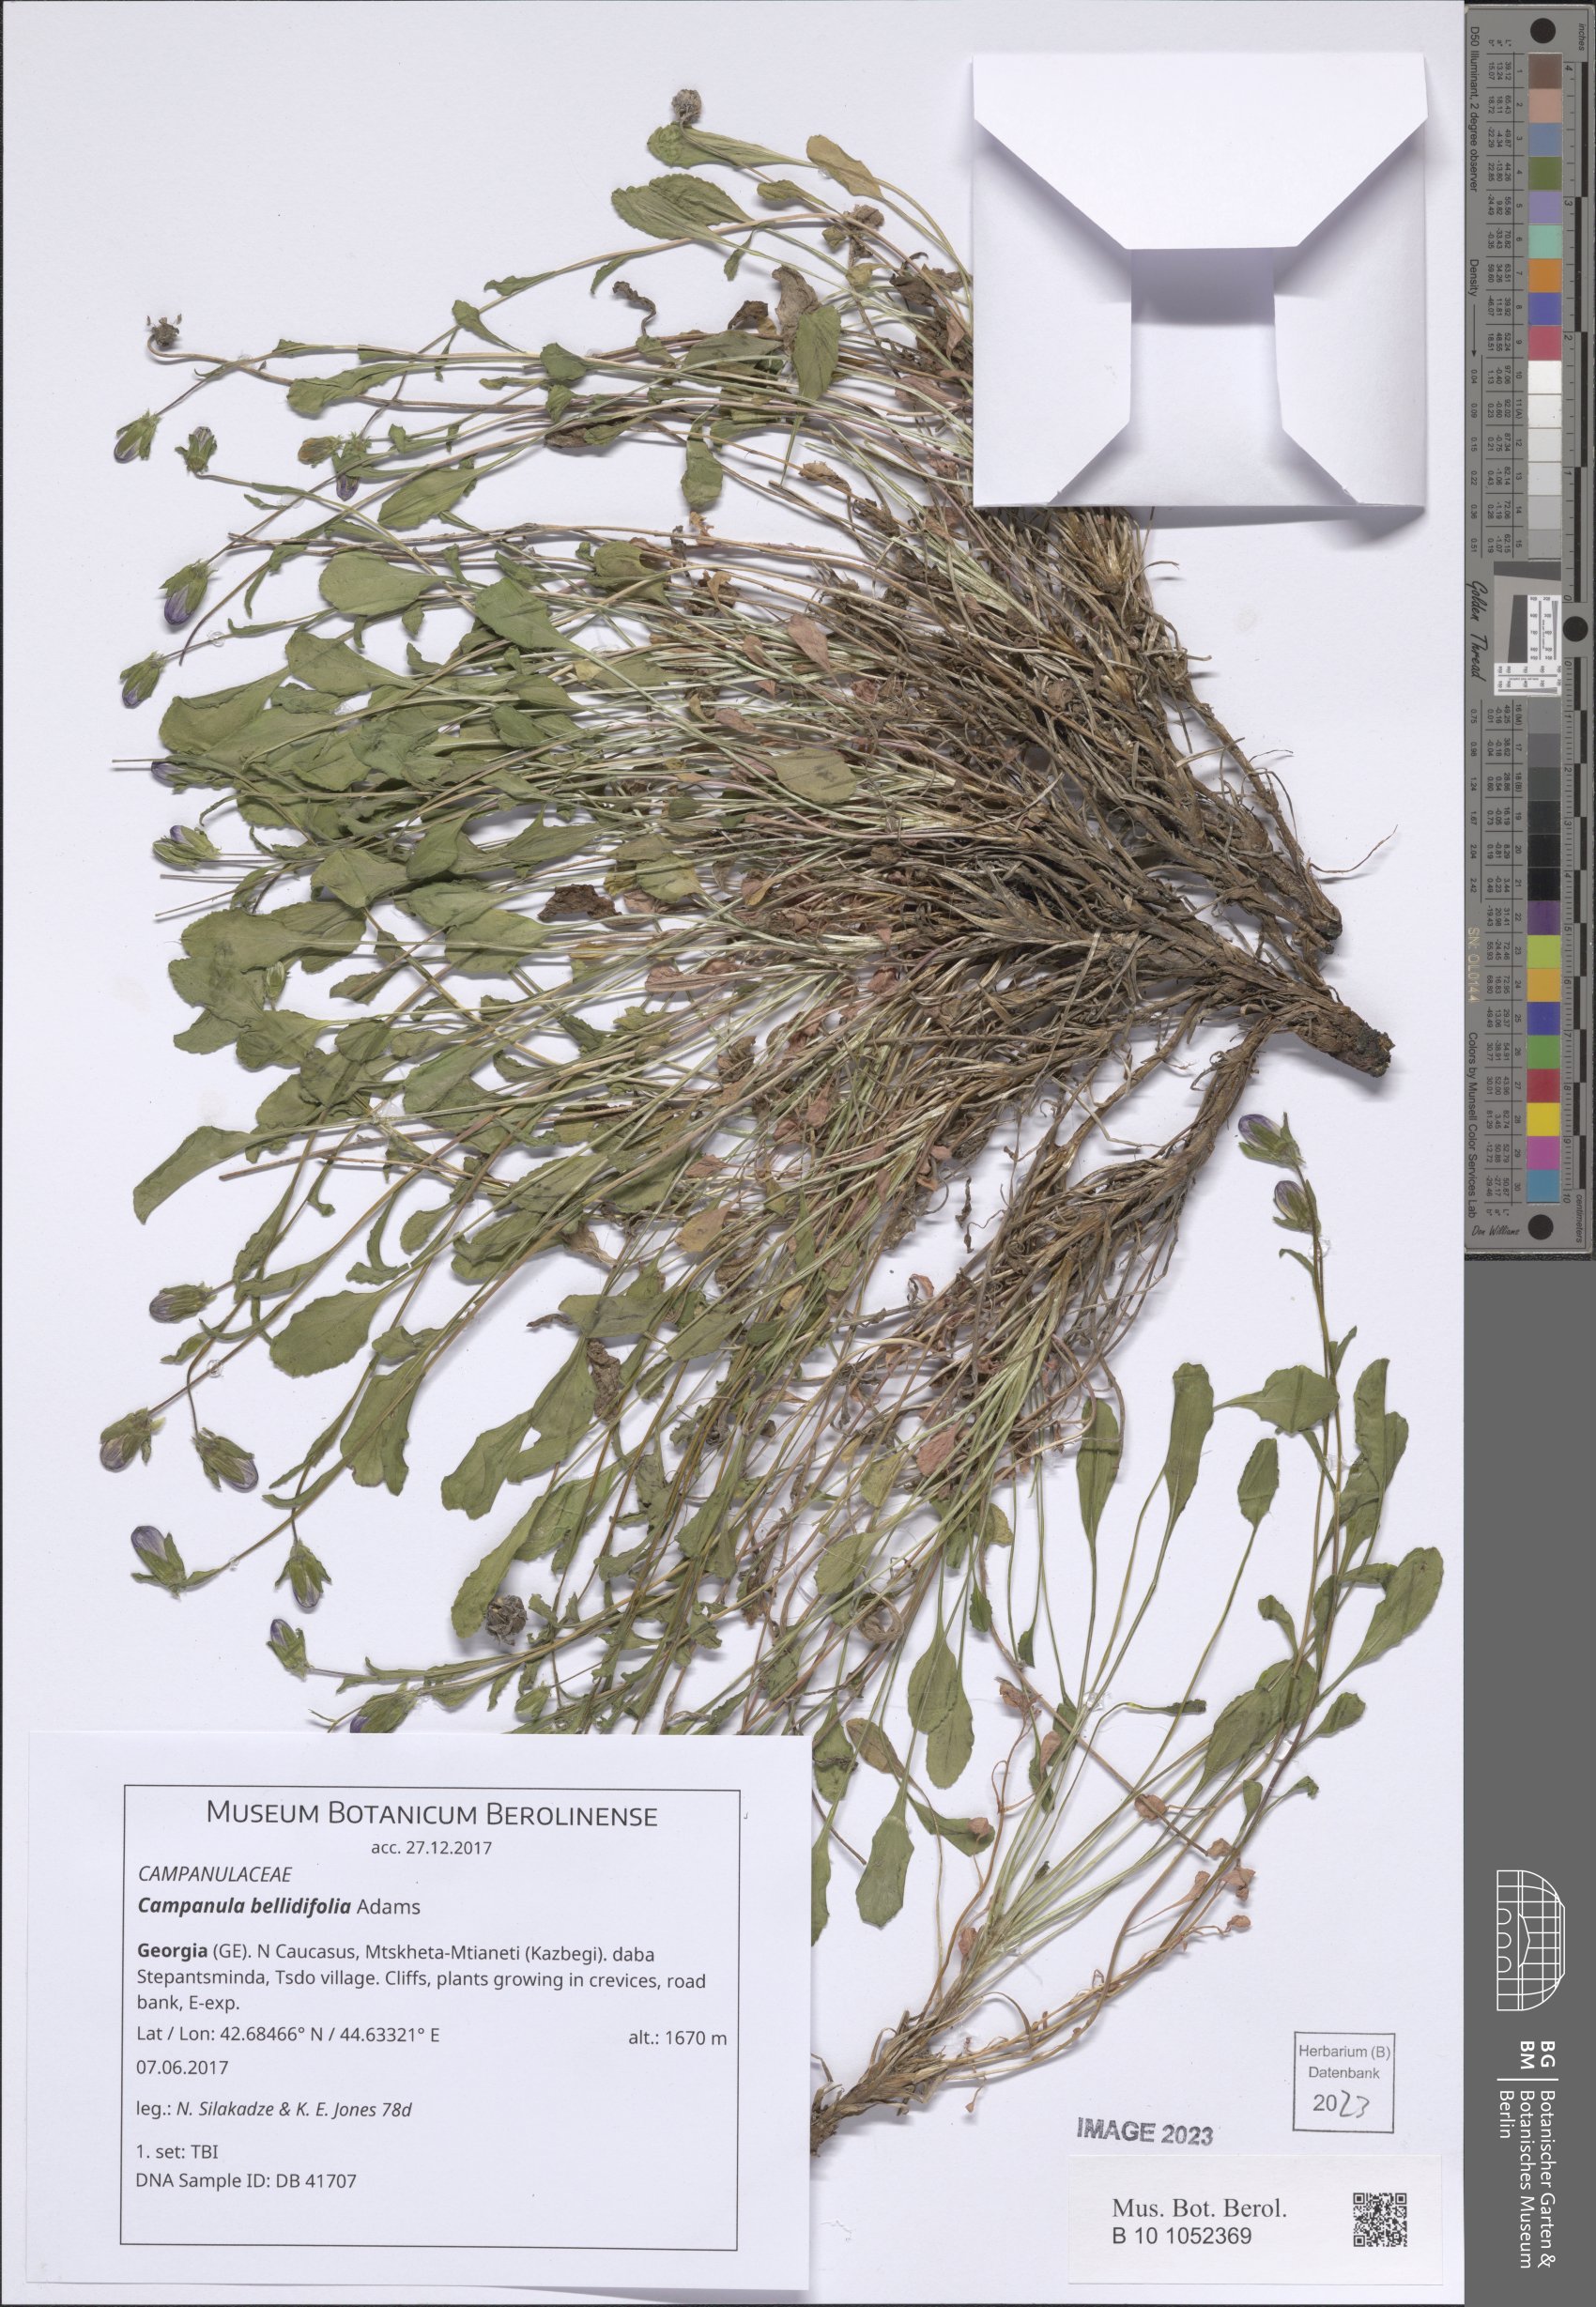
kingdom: Plantae
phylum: Tracheophyta
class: Magnoliopsida
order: Asterales
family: Campanulaceae
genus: Campanula
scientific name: Campanula bellidifolia
